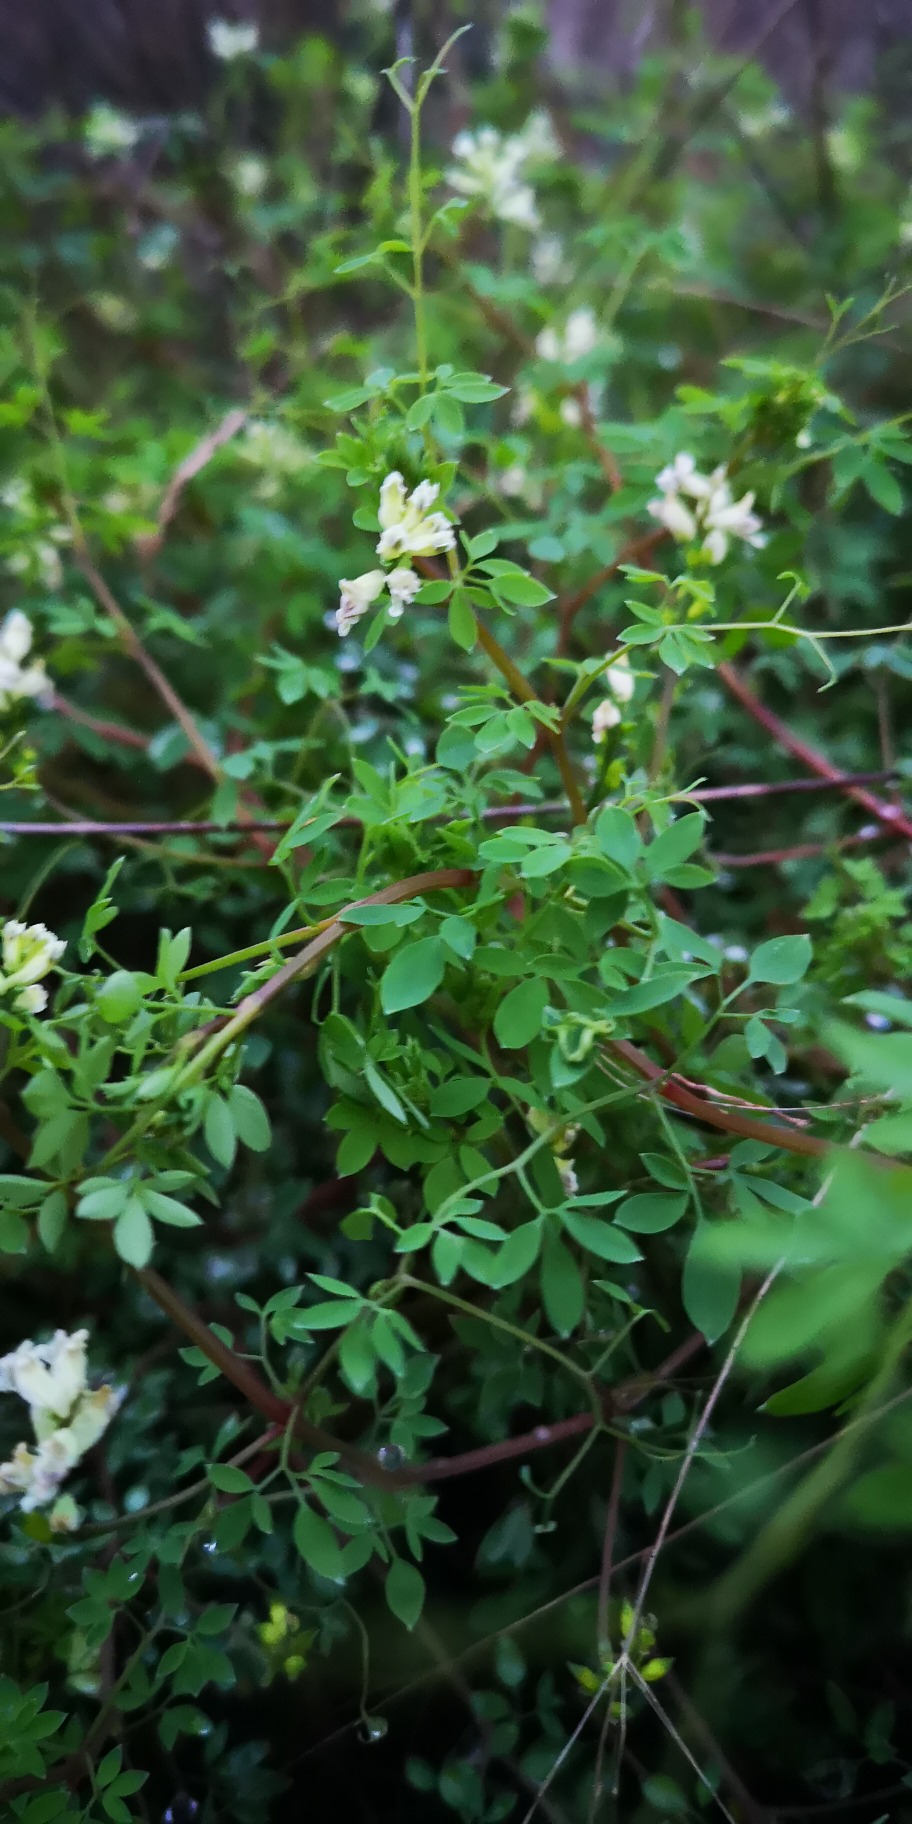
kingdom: Plantae
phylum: Tracheophyta
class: Magnoliopsida
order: Ranunculales
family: Papaveraceae
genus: Ceratocapnos
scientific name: Ceratocapnos claviculata
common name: Klatrende lærkespore
